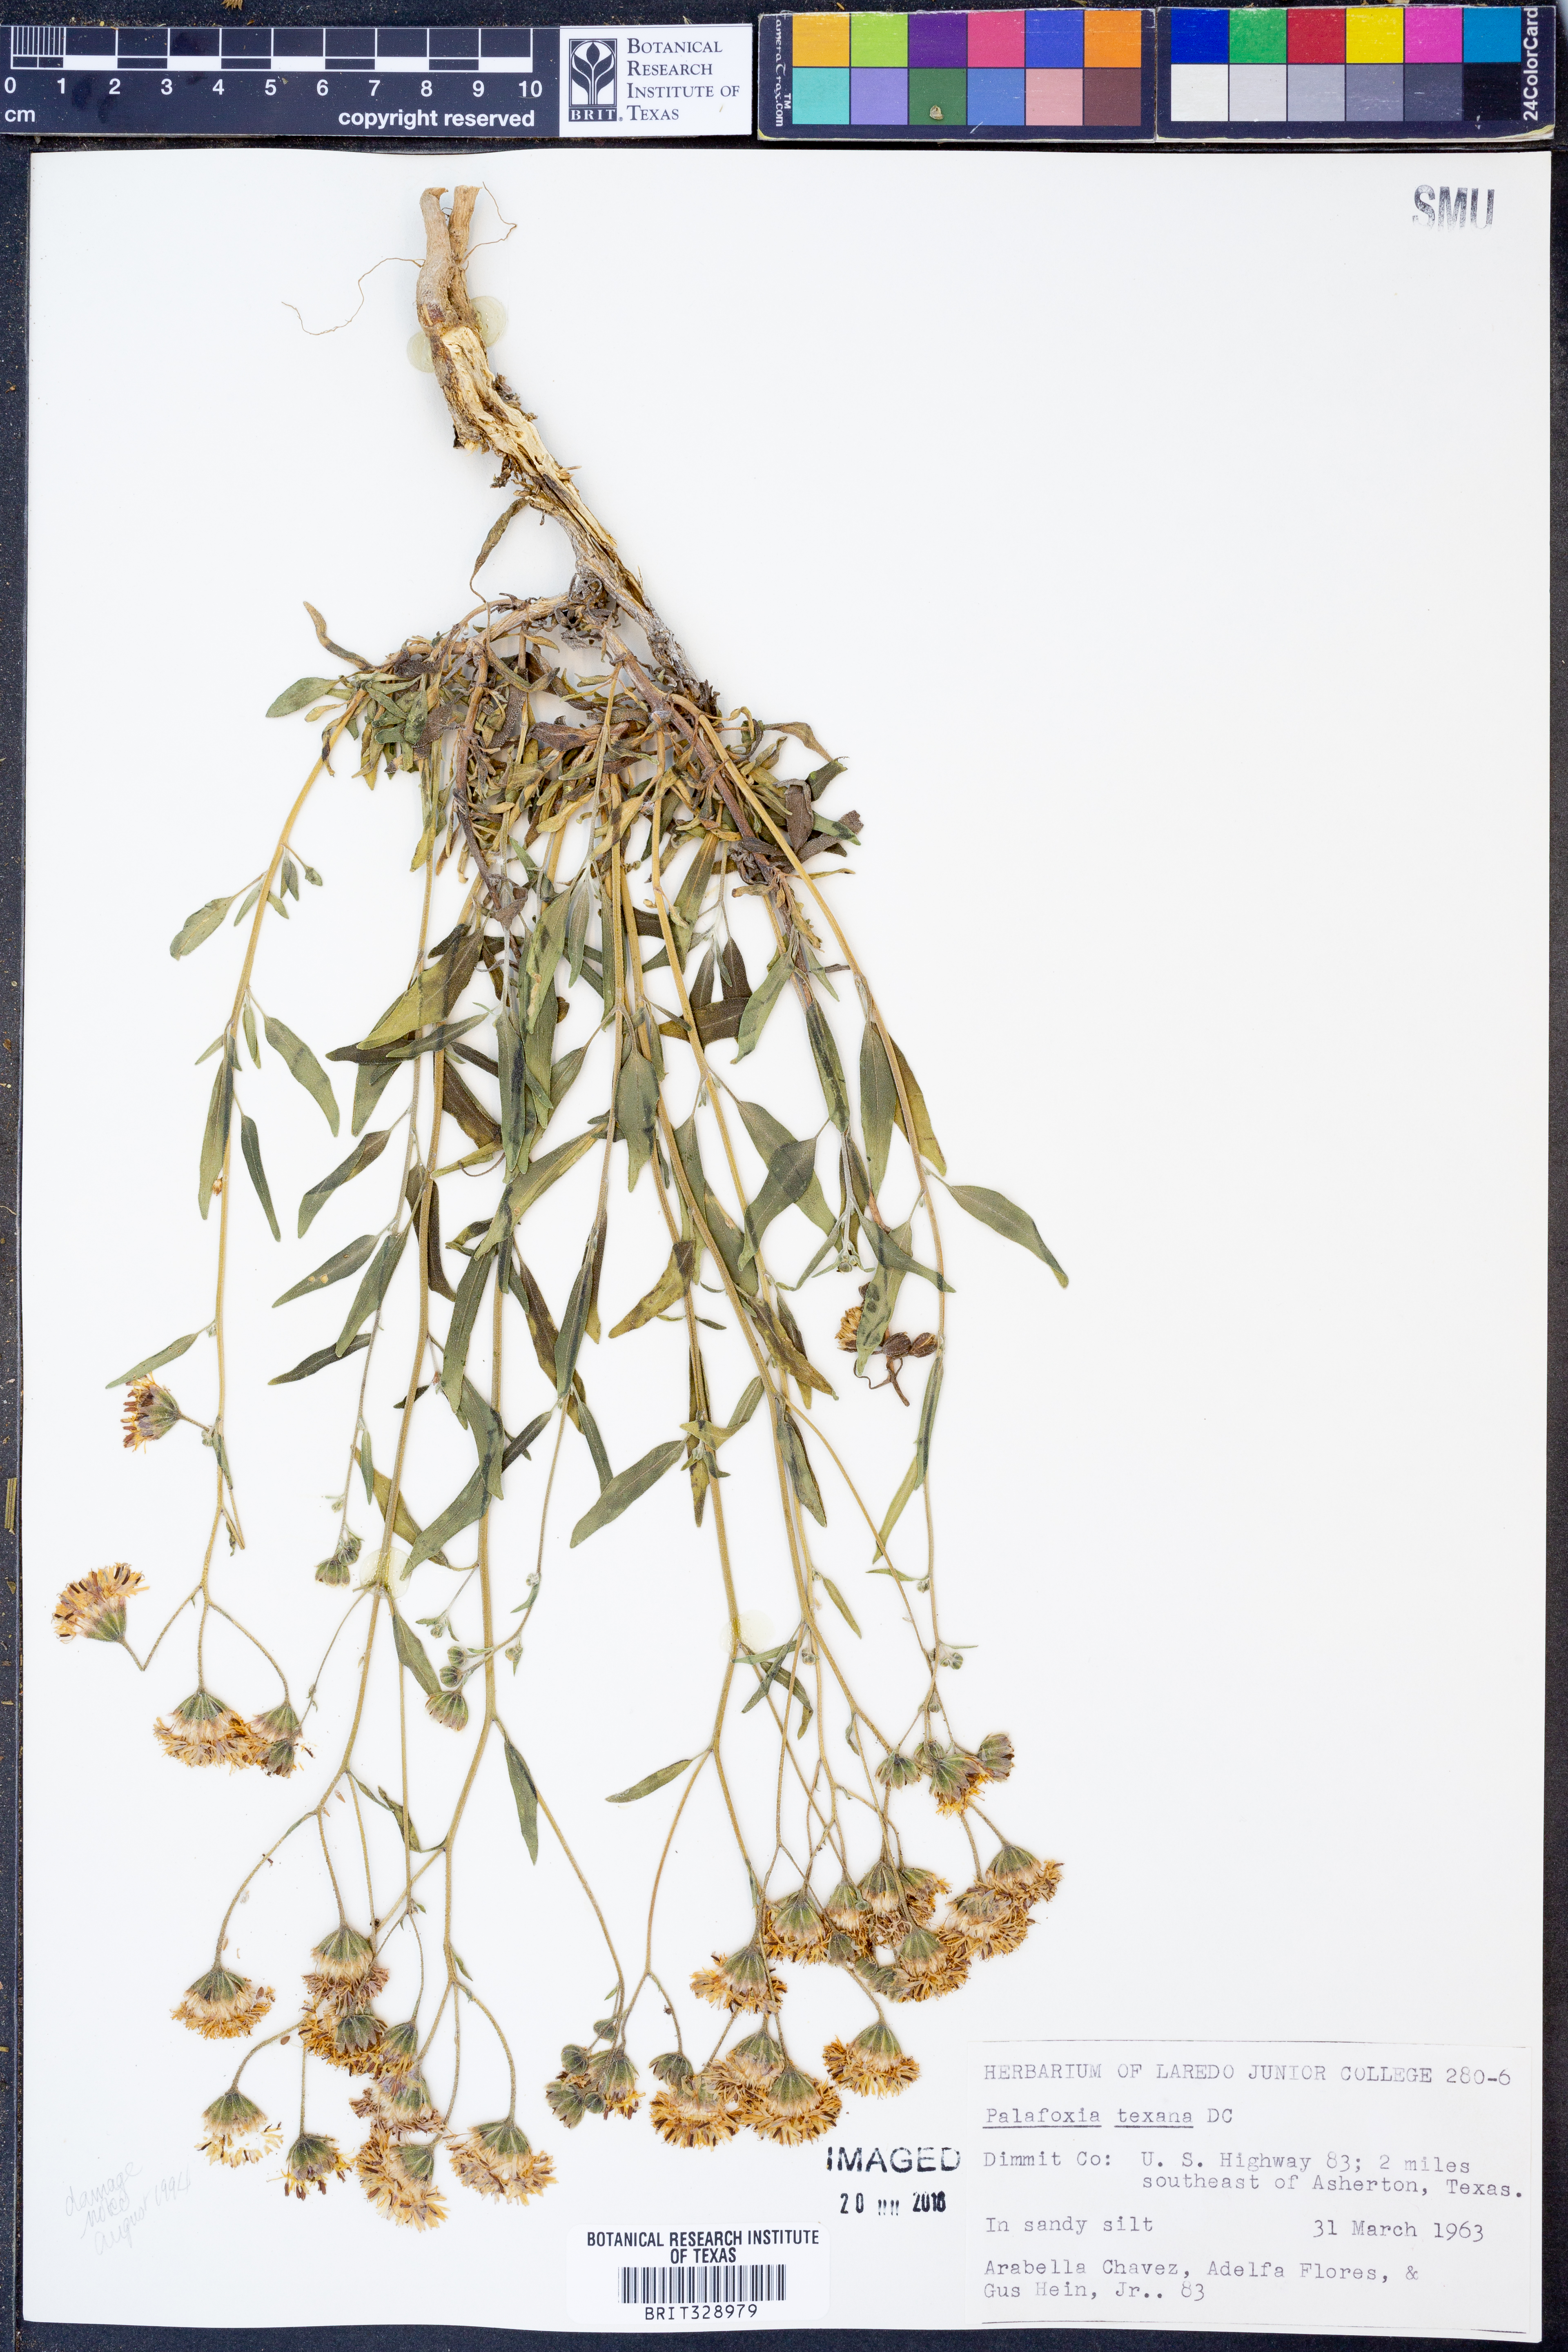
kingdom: Plantae
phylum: Tracheophyta
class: Magnoliopsida
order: Asterales
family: Asteraceae
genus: Palafoxia
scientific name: Palafoxia texana
